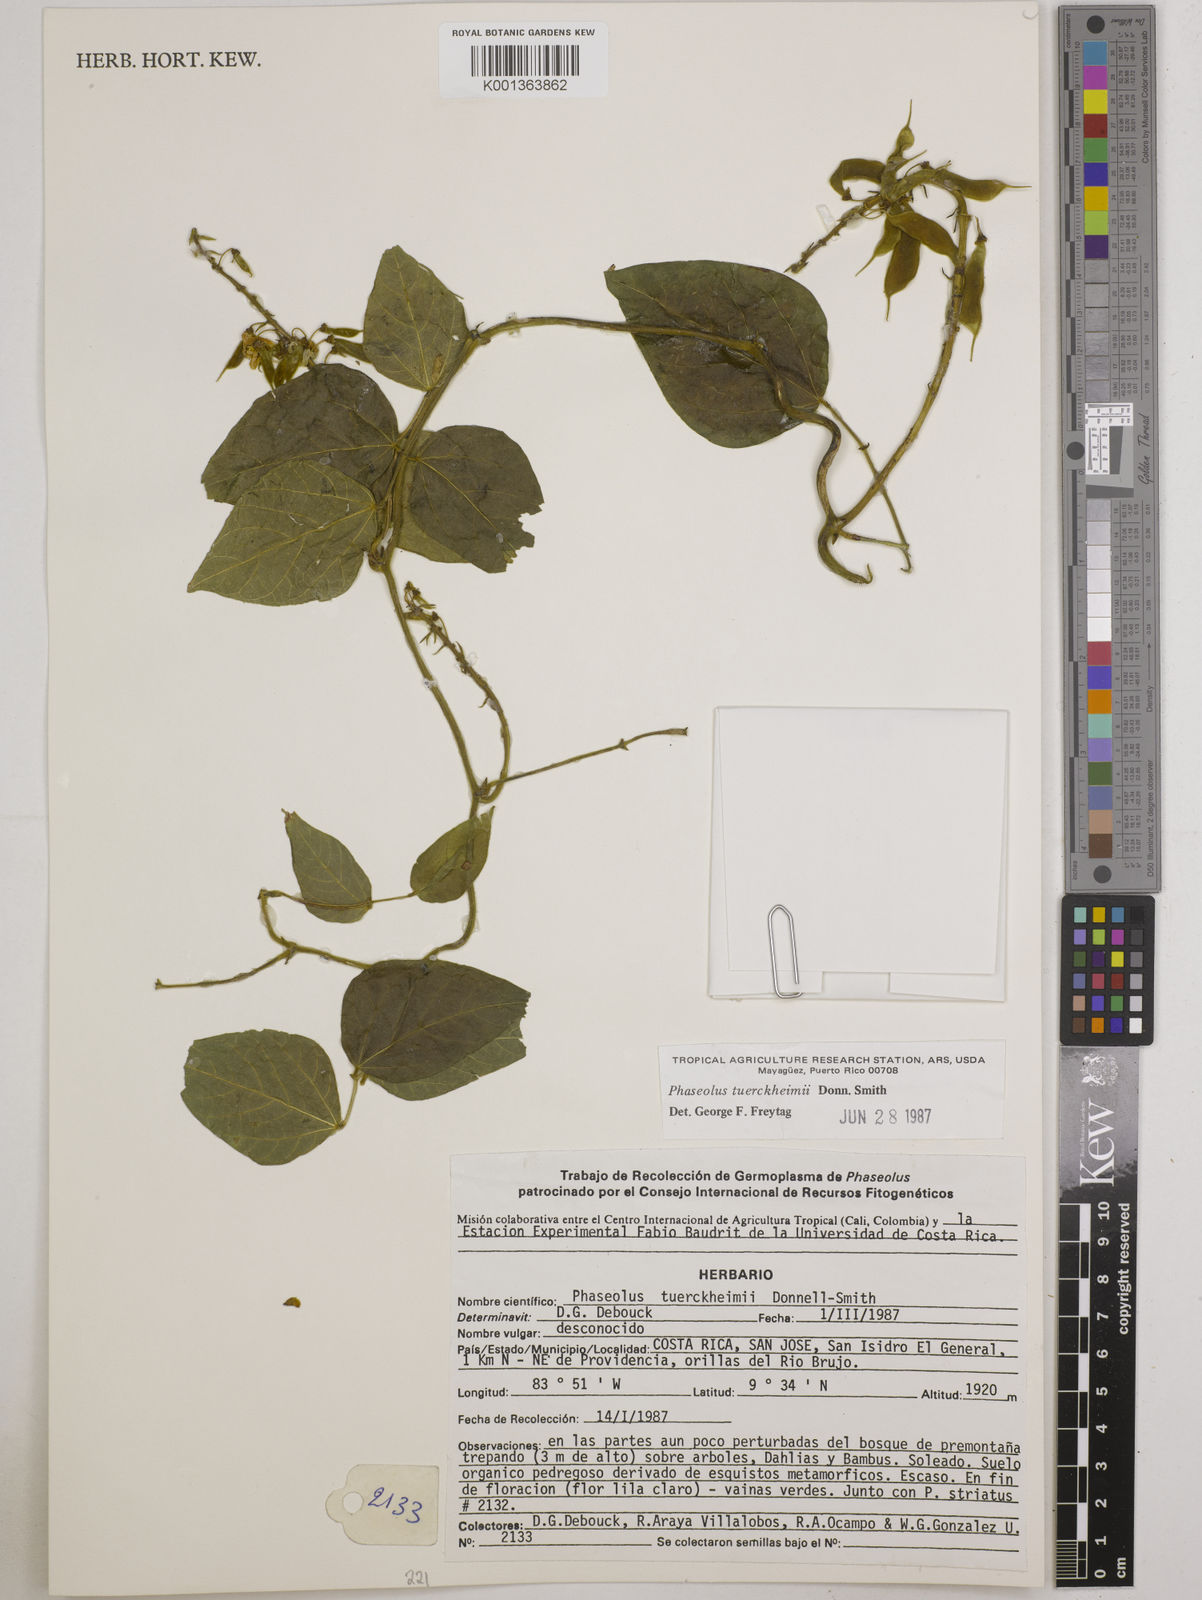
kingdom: Plantae
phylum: Tracheophyta
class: Magnoliopsida
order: Fabales
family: Fabaceae
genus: Phaseolus
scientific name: Phaseolus tuerckheimii
